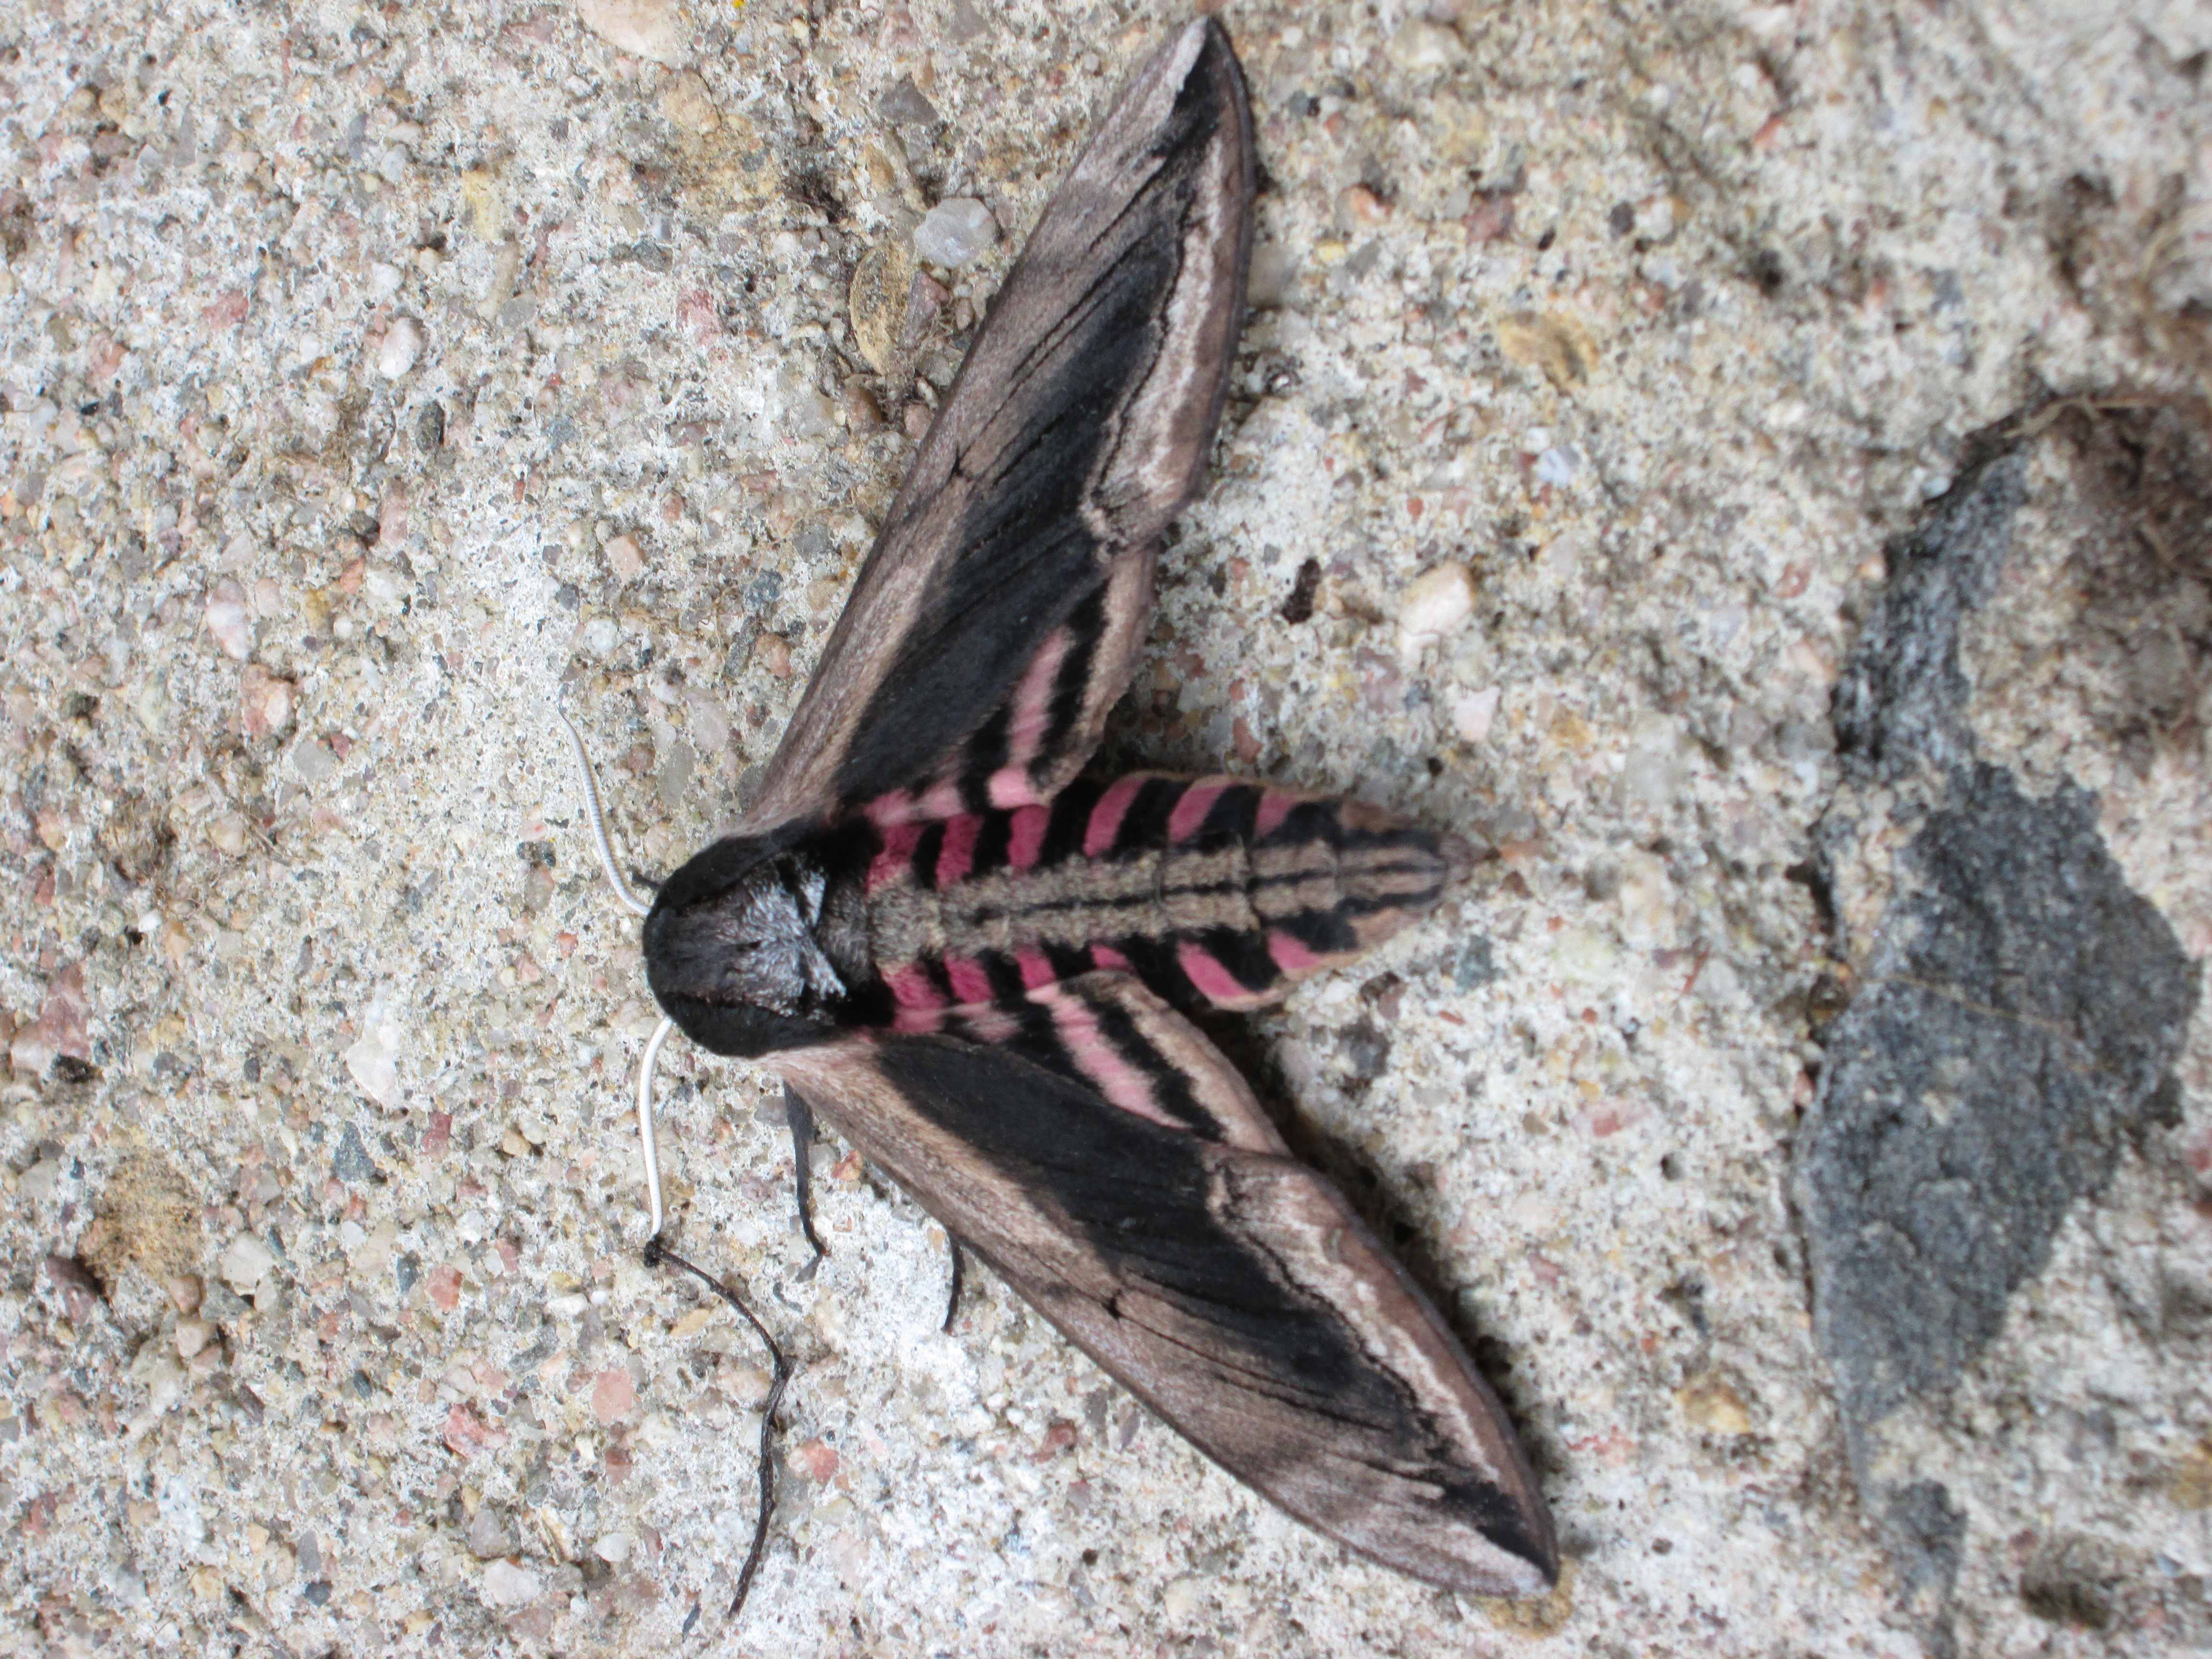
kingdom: Animalia
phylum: Arthropoda
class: Insecta
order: Lepidoptera
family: Sphingidae
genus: Sphinx
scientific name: Sphinx ligustri
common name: Privet hawk-moth
